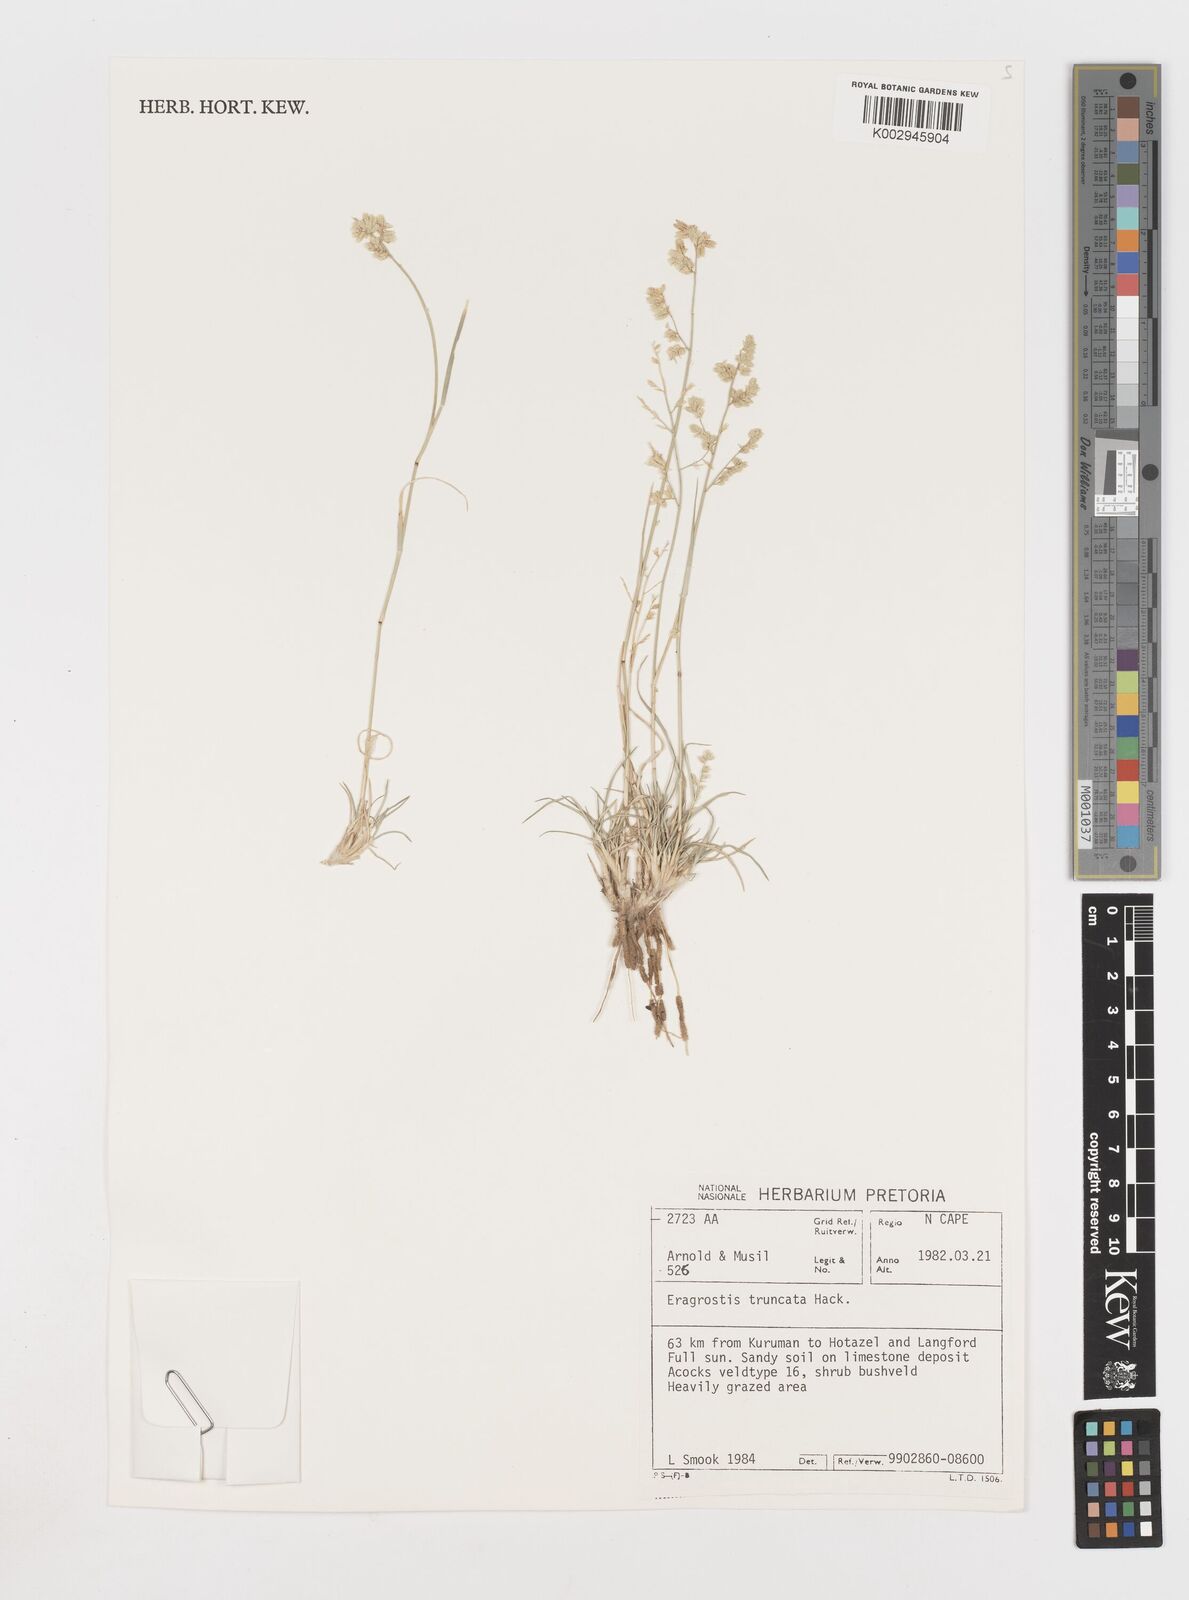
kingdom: Plantae
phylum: Tracheophyta
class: Liliopsida
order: Poales
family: Poaceae
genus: Eragrostis
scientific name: Eragrostis truncata
